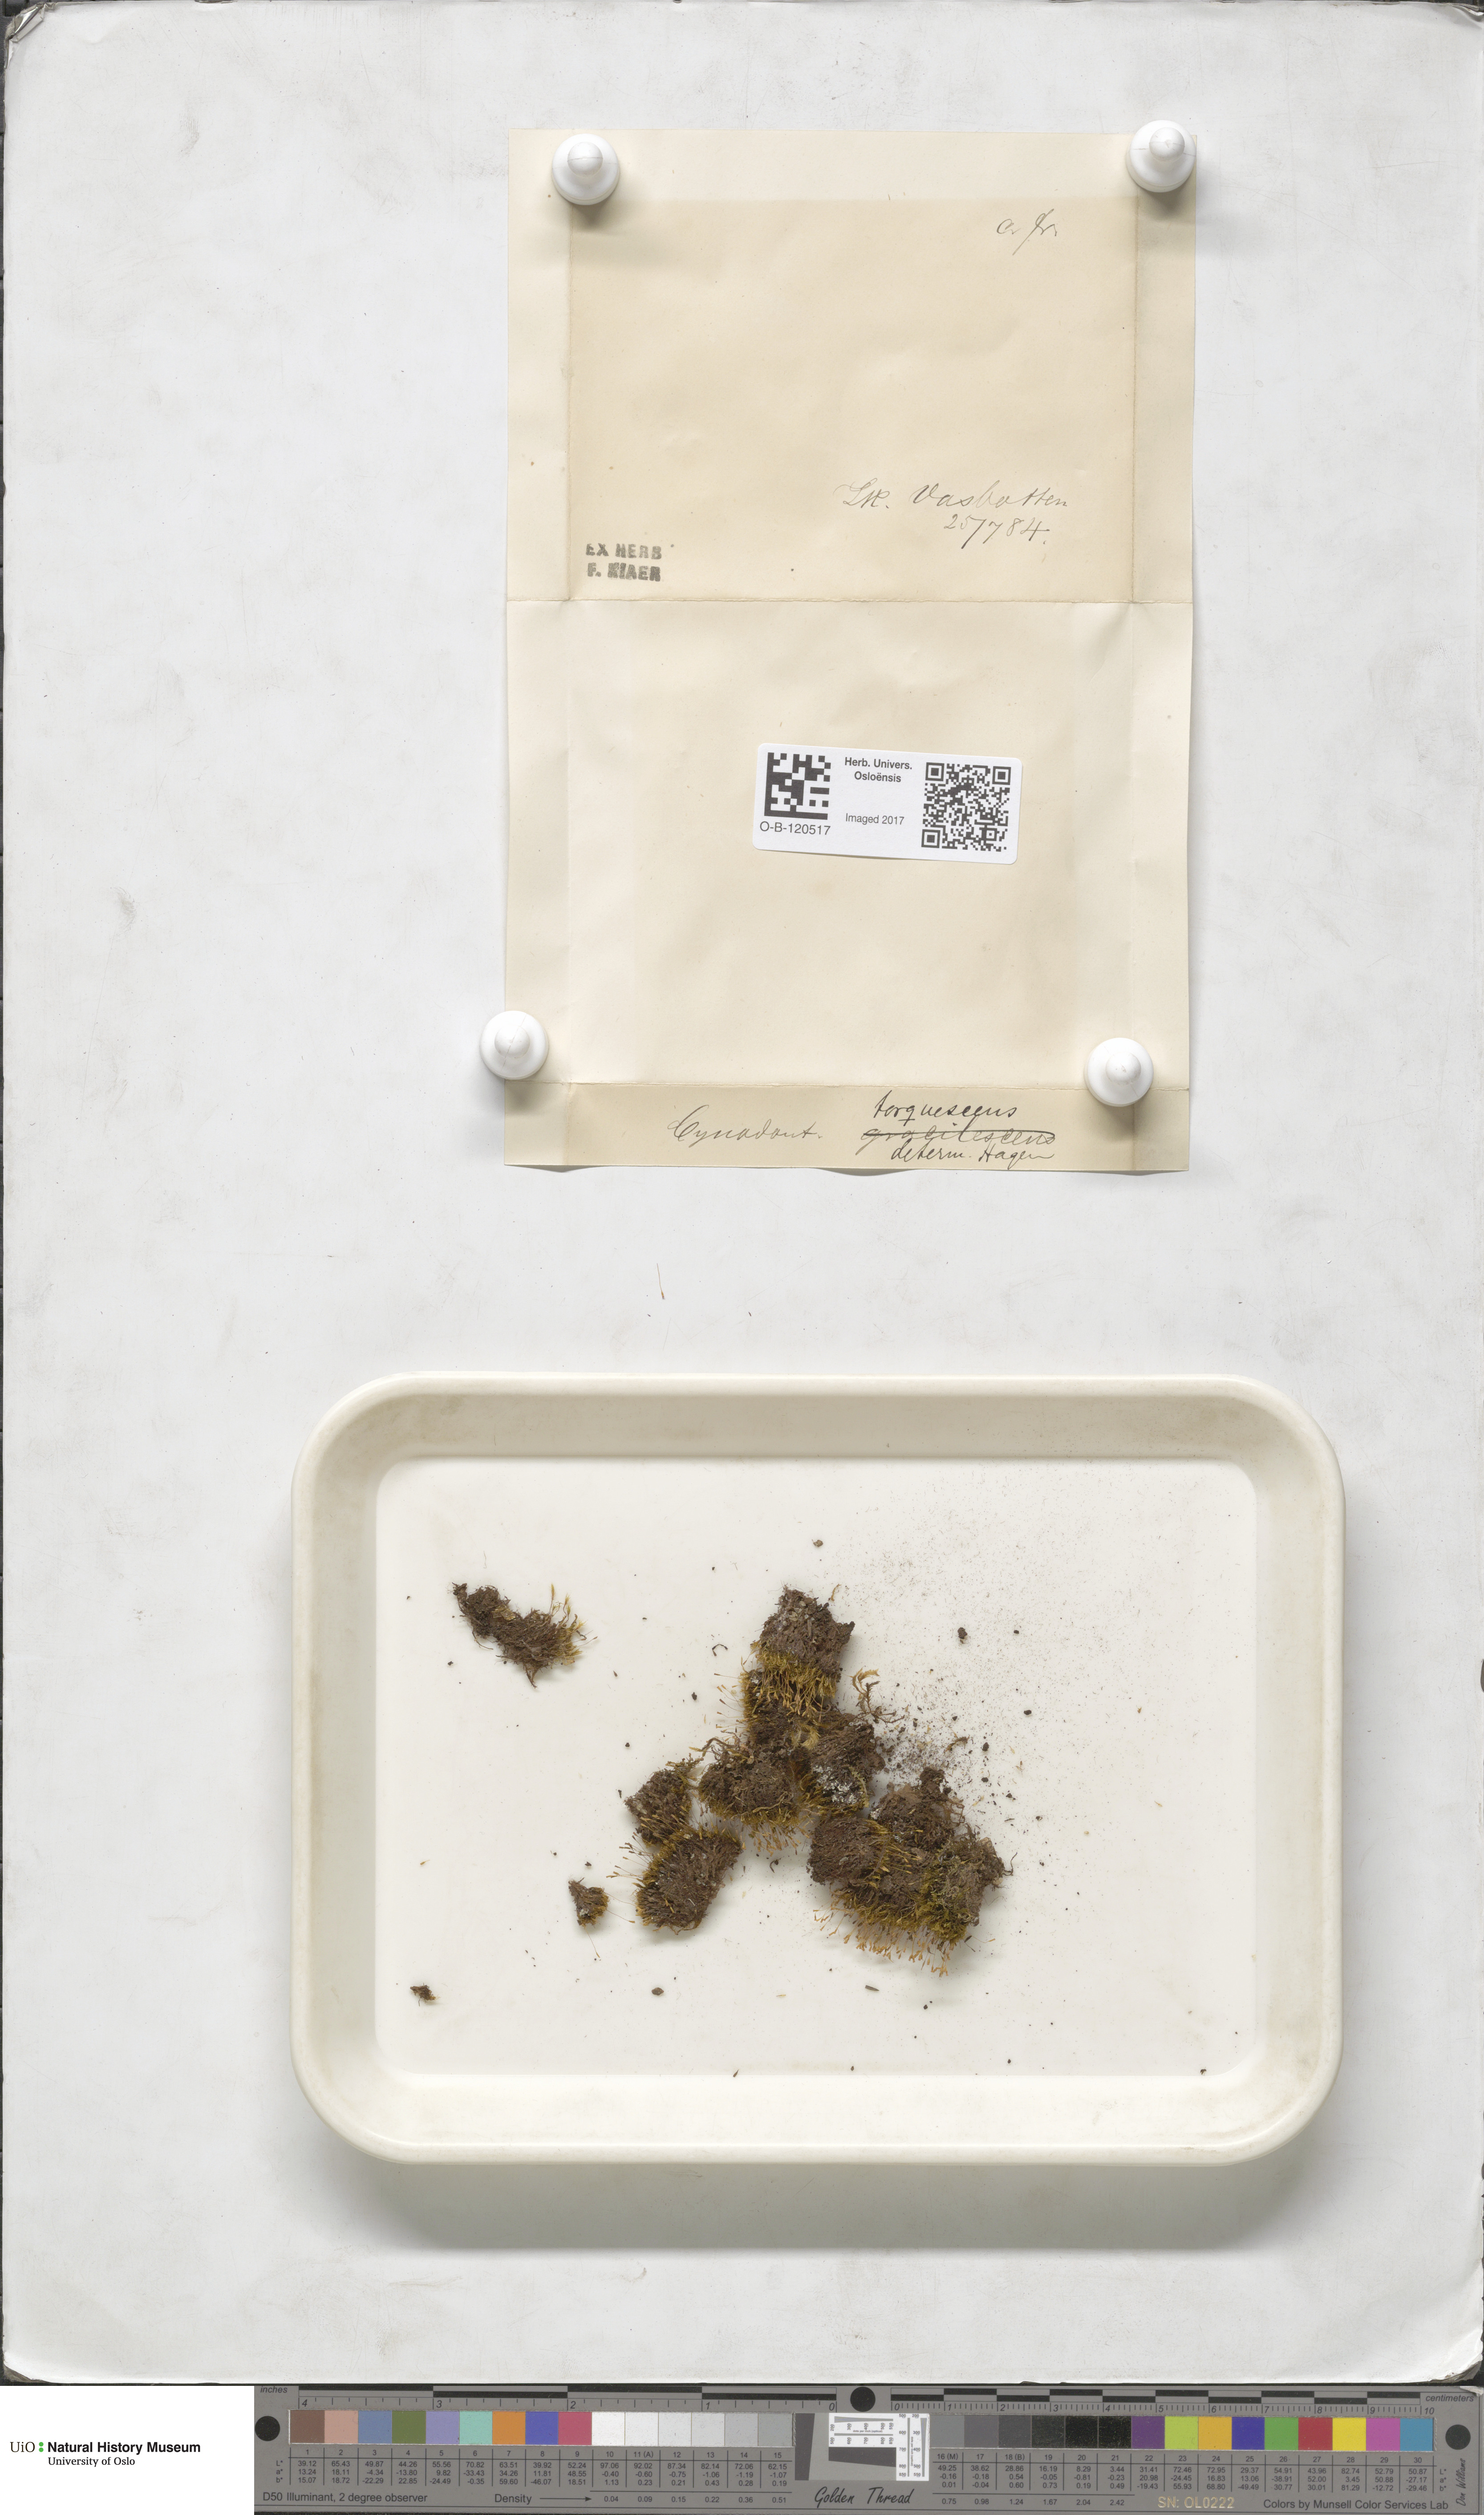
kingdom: Plantae
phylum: Bryophyta
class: Bryopsida
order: Dicranales
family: Rhabdoweisiaceae
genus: Cynodontium
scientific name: Cynodontium tenellum
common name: Delicate dogtooth moss
